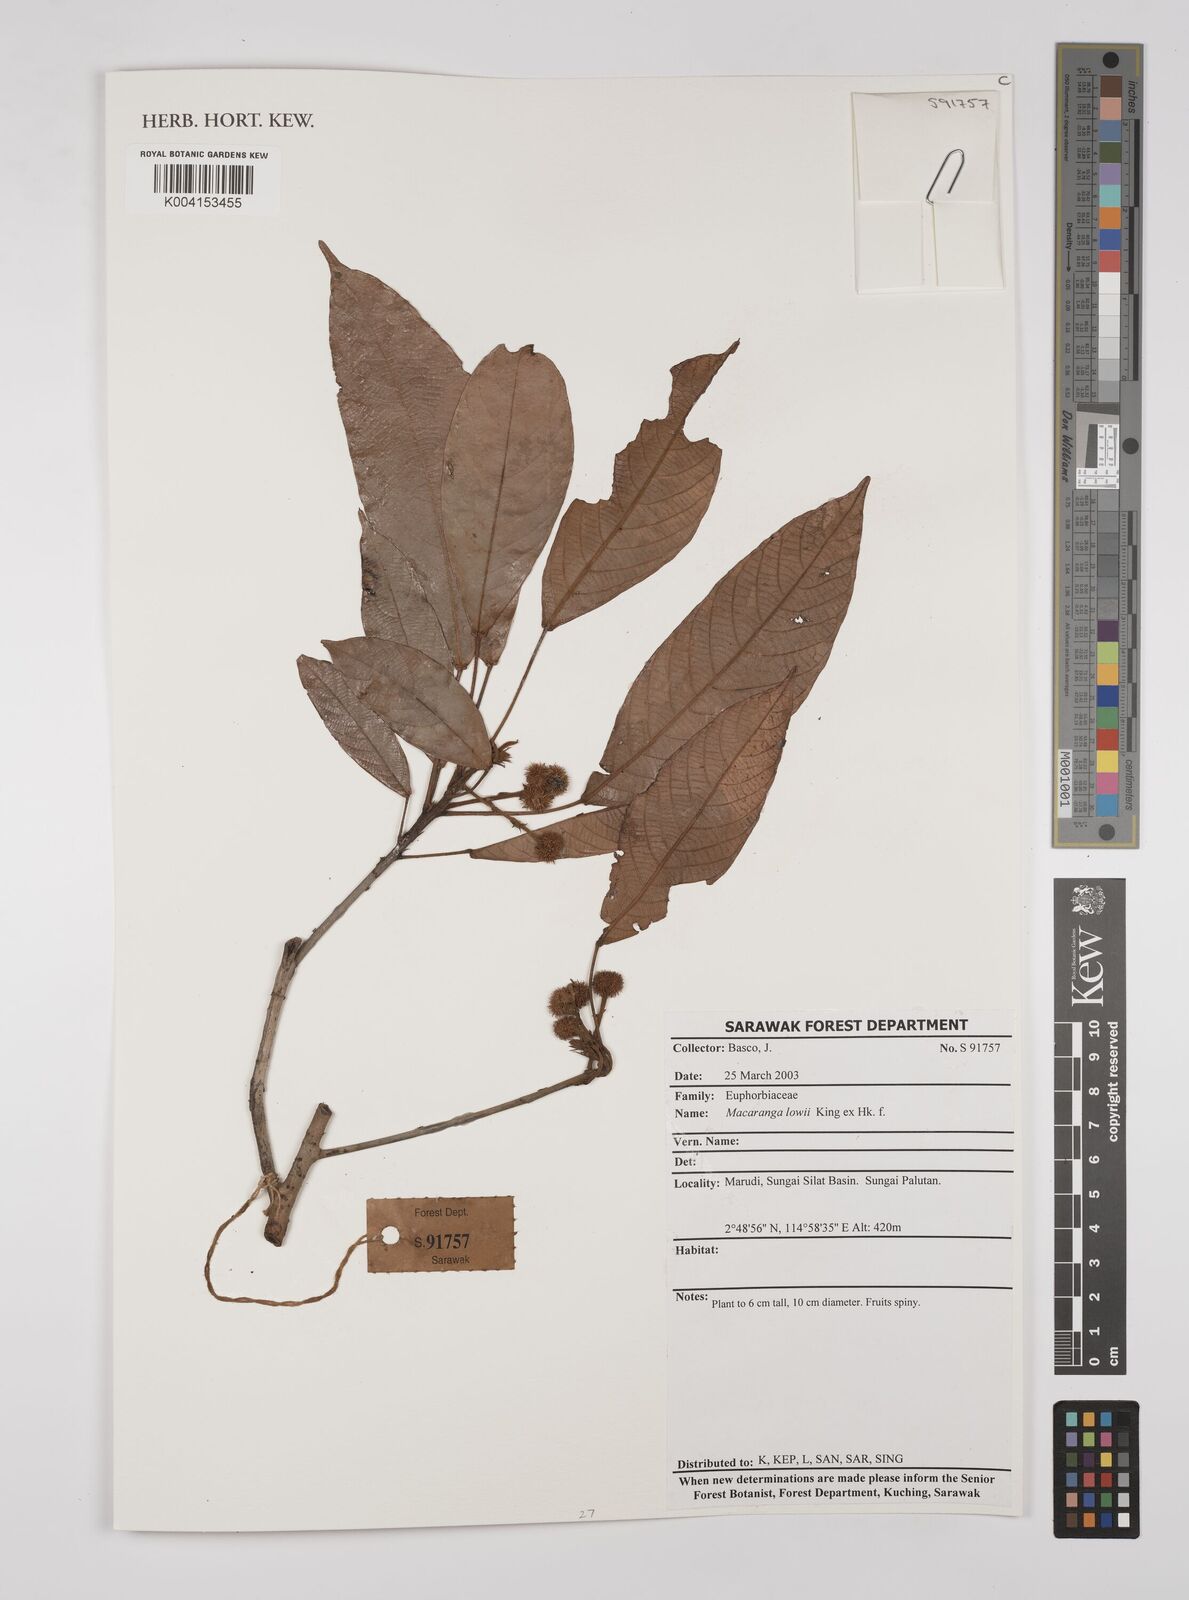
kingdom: Plantae
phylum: Tracheophyta
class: Magnoliopsida
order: Malpighiales
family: Euphorbiaceae
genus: Macaranga
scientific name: Macaranga lowii
